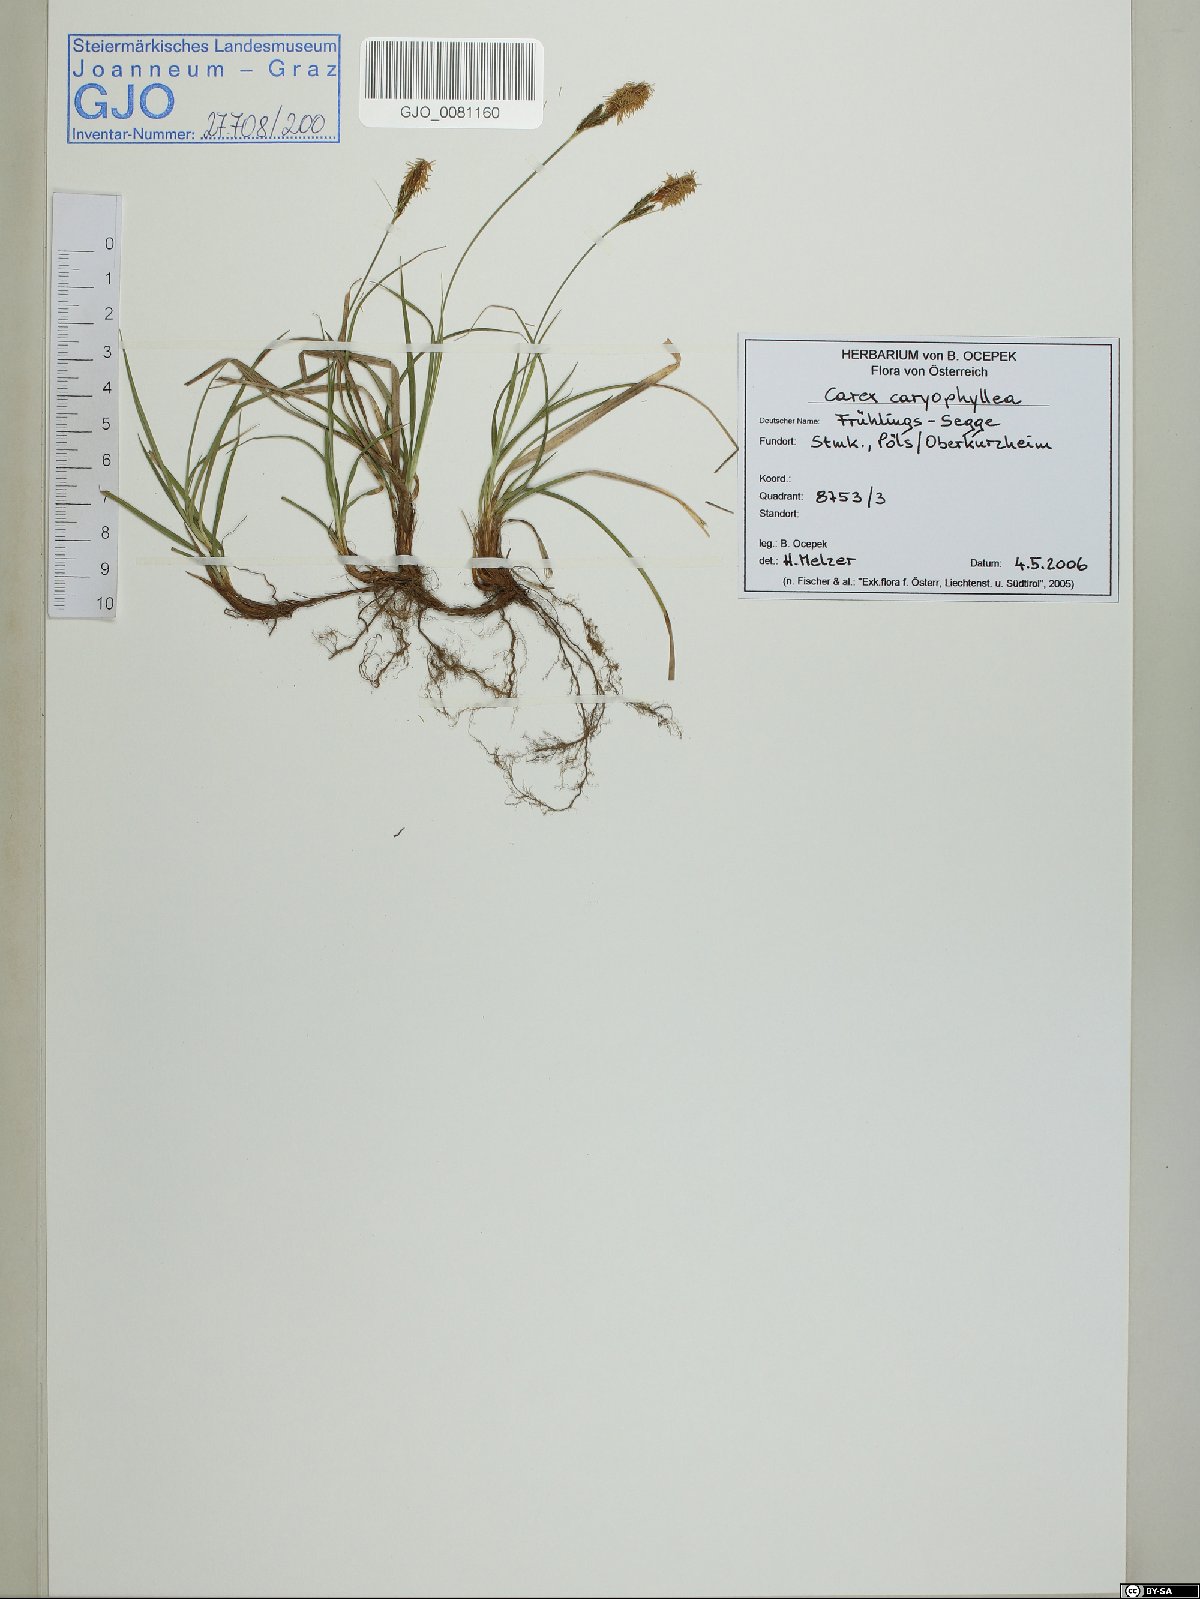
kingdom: Plantae
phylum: Tracheophyta
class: Liliopsida
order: Poales
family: Cyperaceae
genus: Carex
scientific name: Carex caryophyllea
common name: Spring sedge
